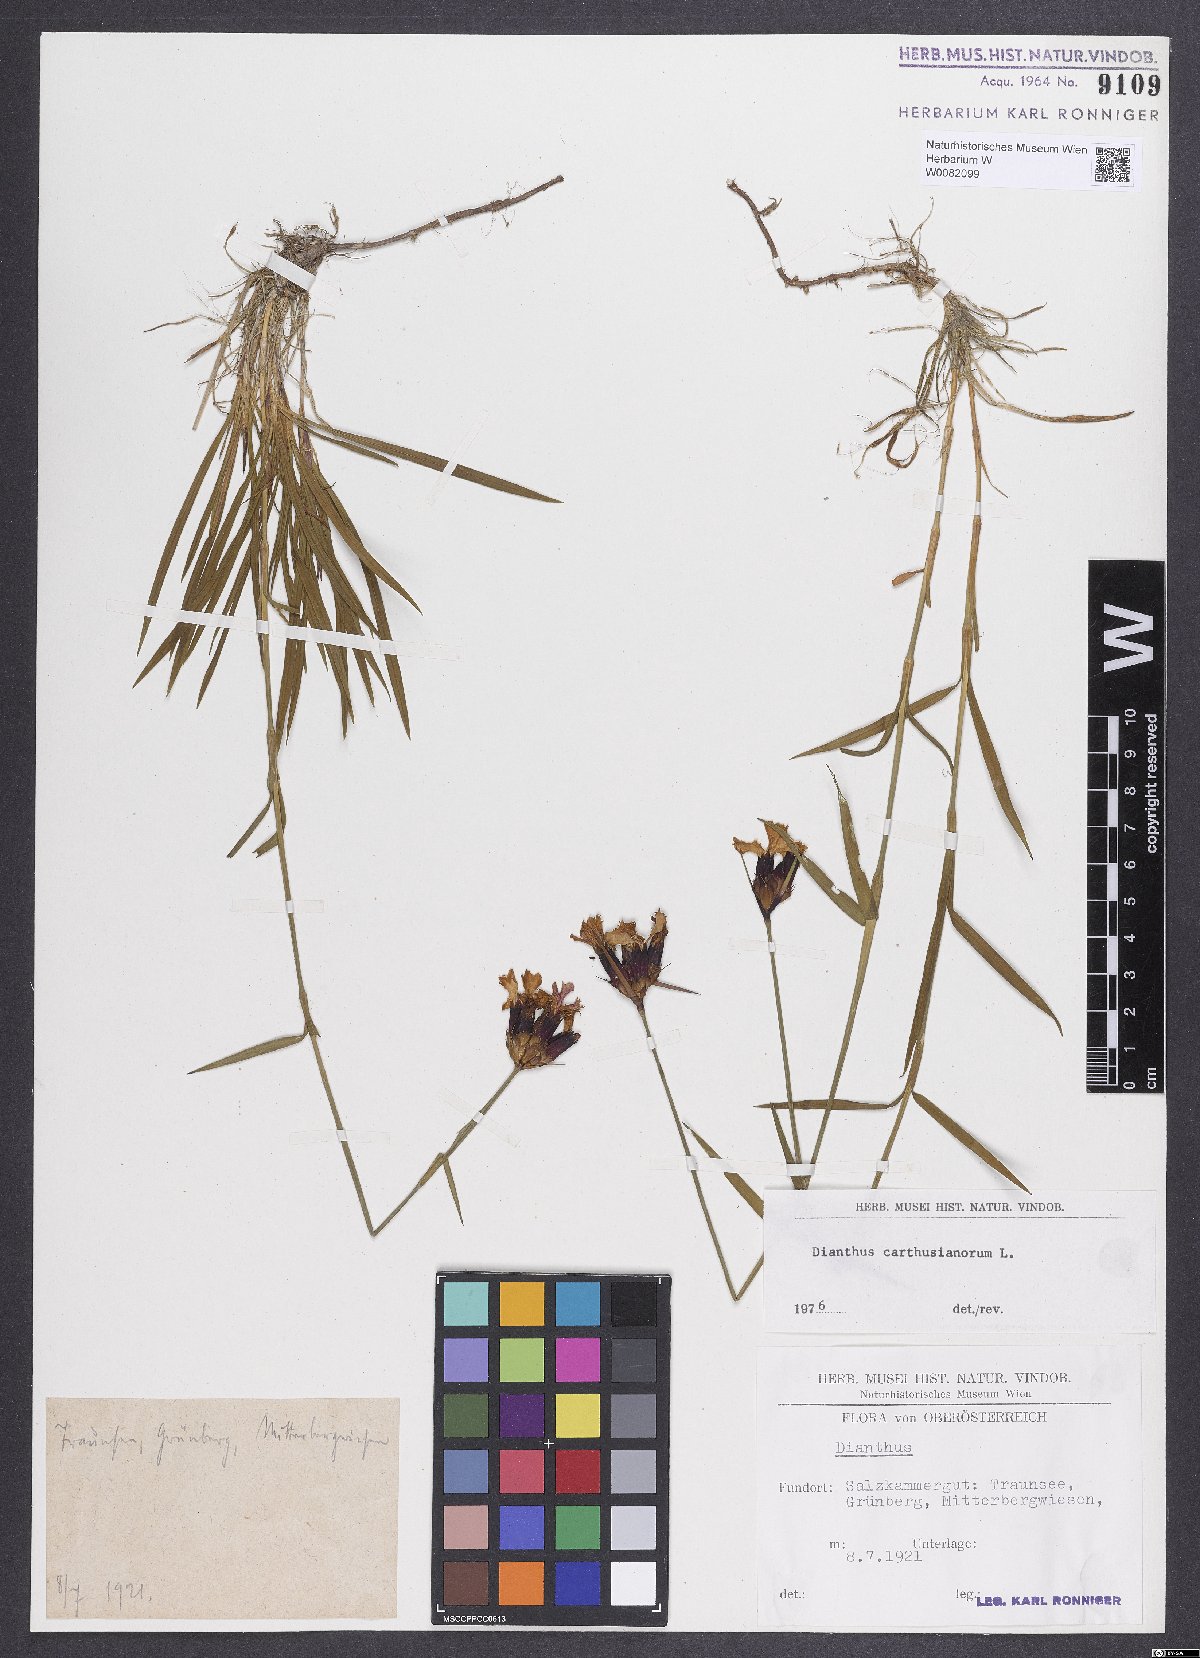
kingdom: Plantae
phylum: Tracheophyta
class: Magnoliopsida
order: Caryophyllales
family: Caryophyllaceae
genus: Dianthus
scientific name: Dianthus carthusianorum
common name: Carthusian pink
